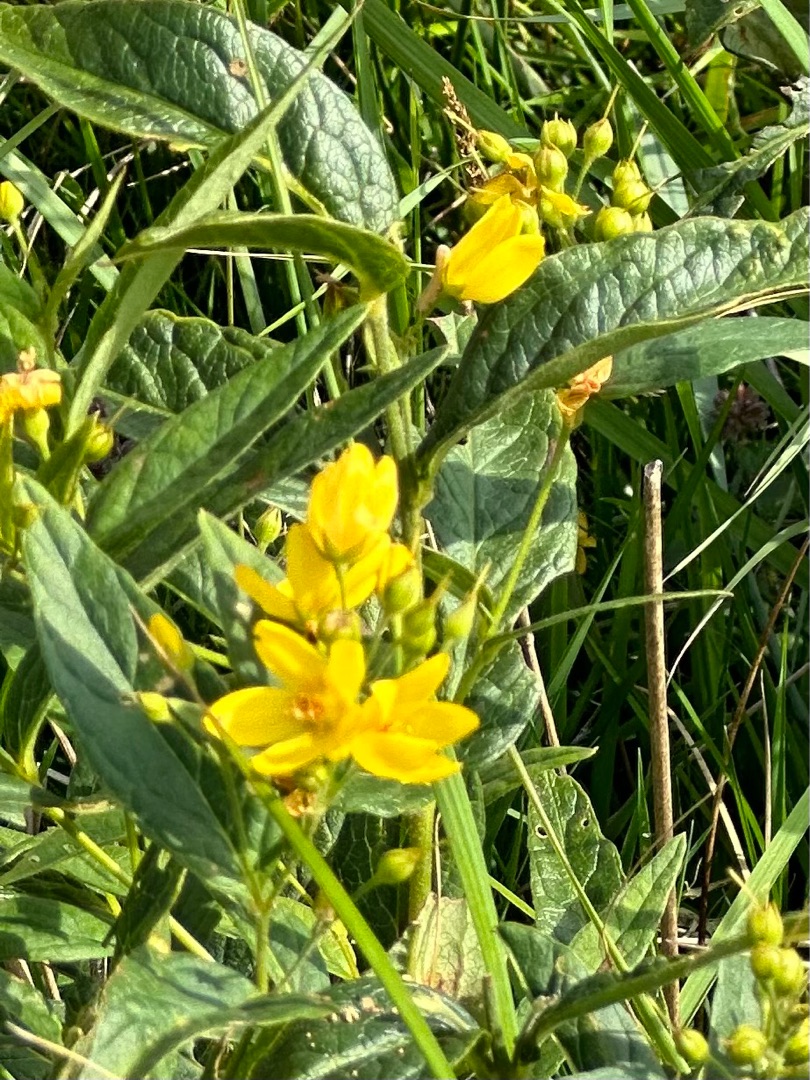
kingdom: Plantae
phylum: Tracheophyta
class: Magnoliopsida
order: Ericales
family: Primulaceae
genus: Lysimachia
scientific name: Lysimachia vulgaris
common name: Almindelig fredløs
